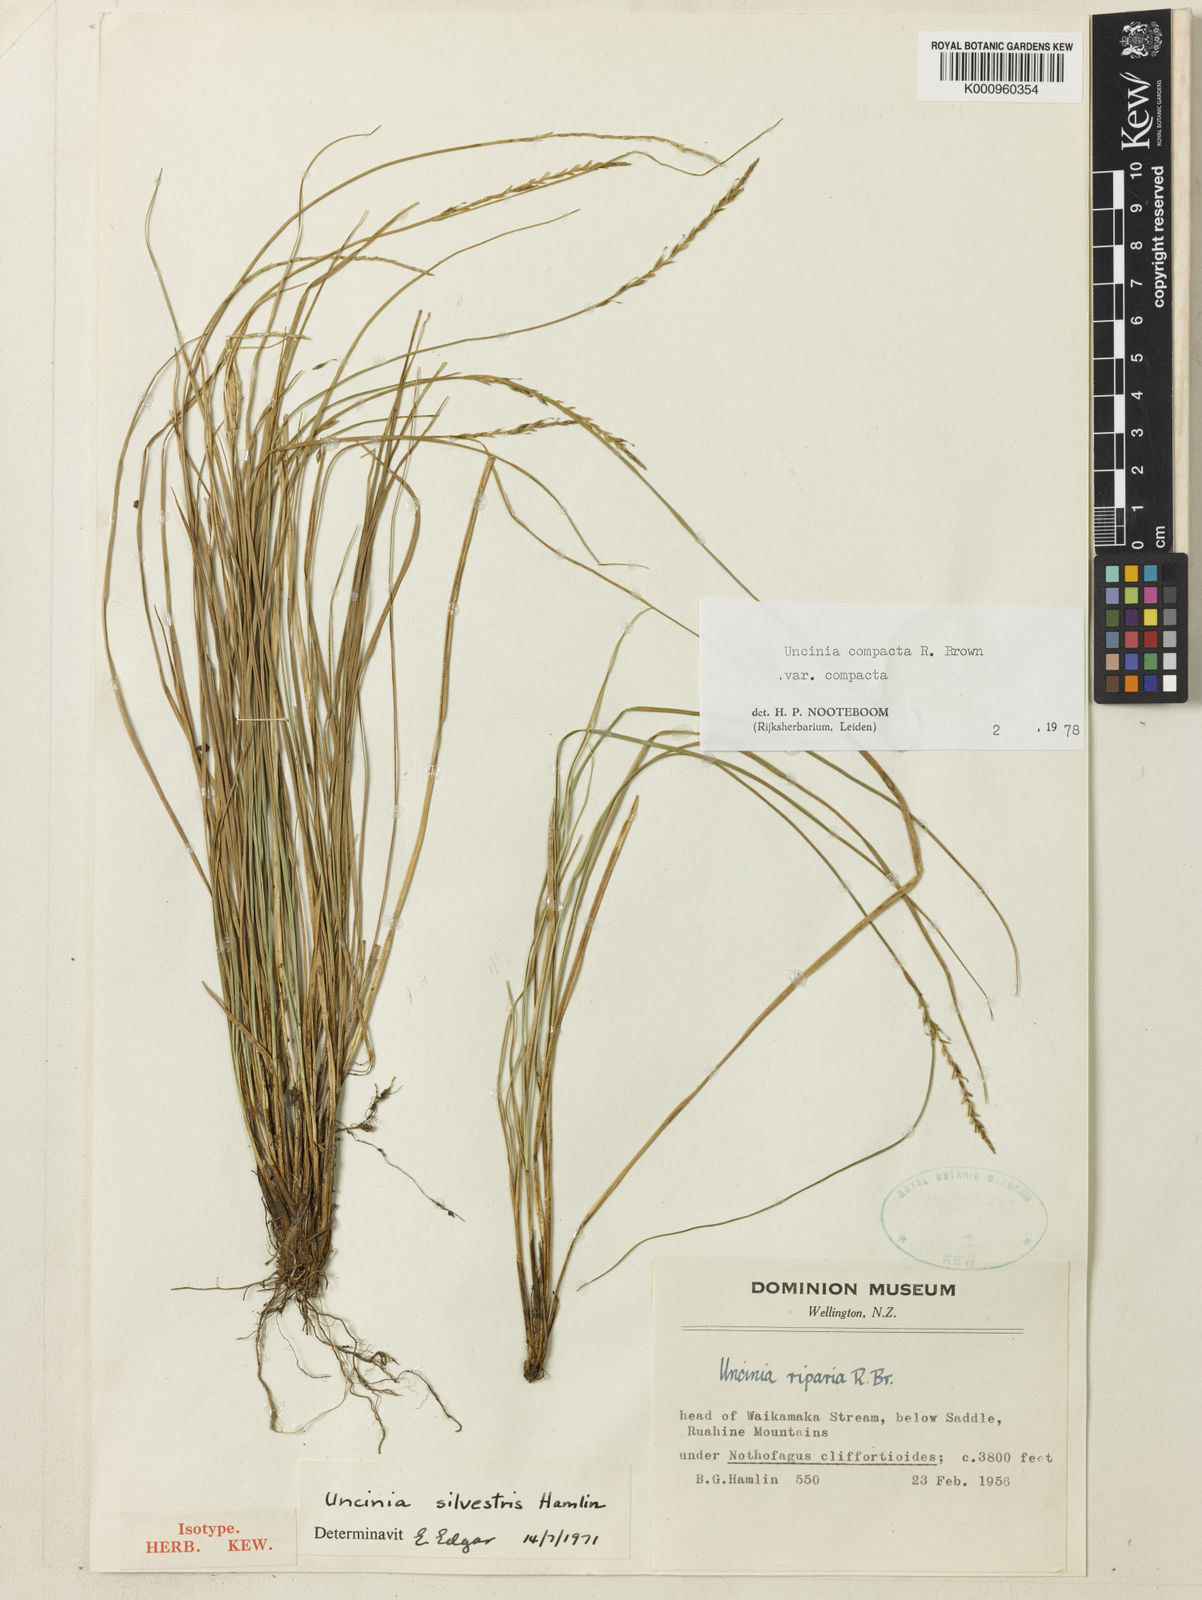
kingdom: Plantae
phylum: Tracheophyta
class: Liliopsida
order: Poales
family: Cyperaceae
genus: Carex
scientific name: Carex silvestris
